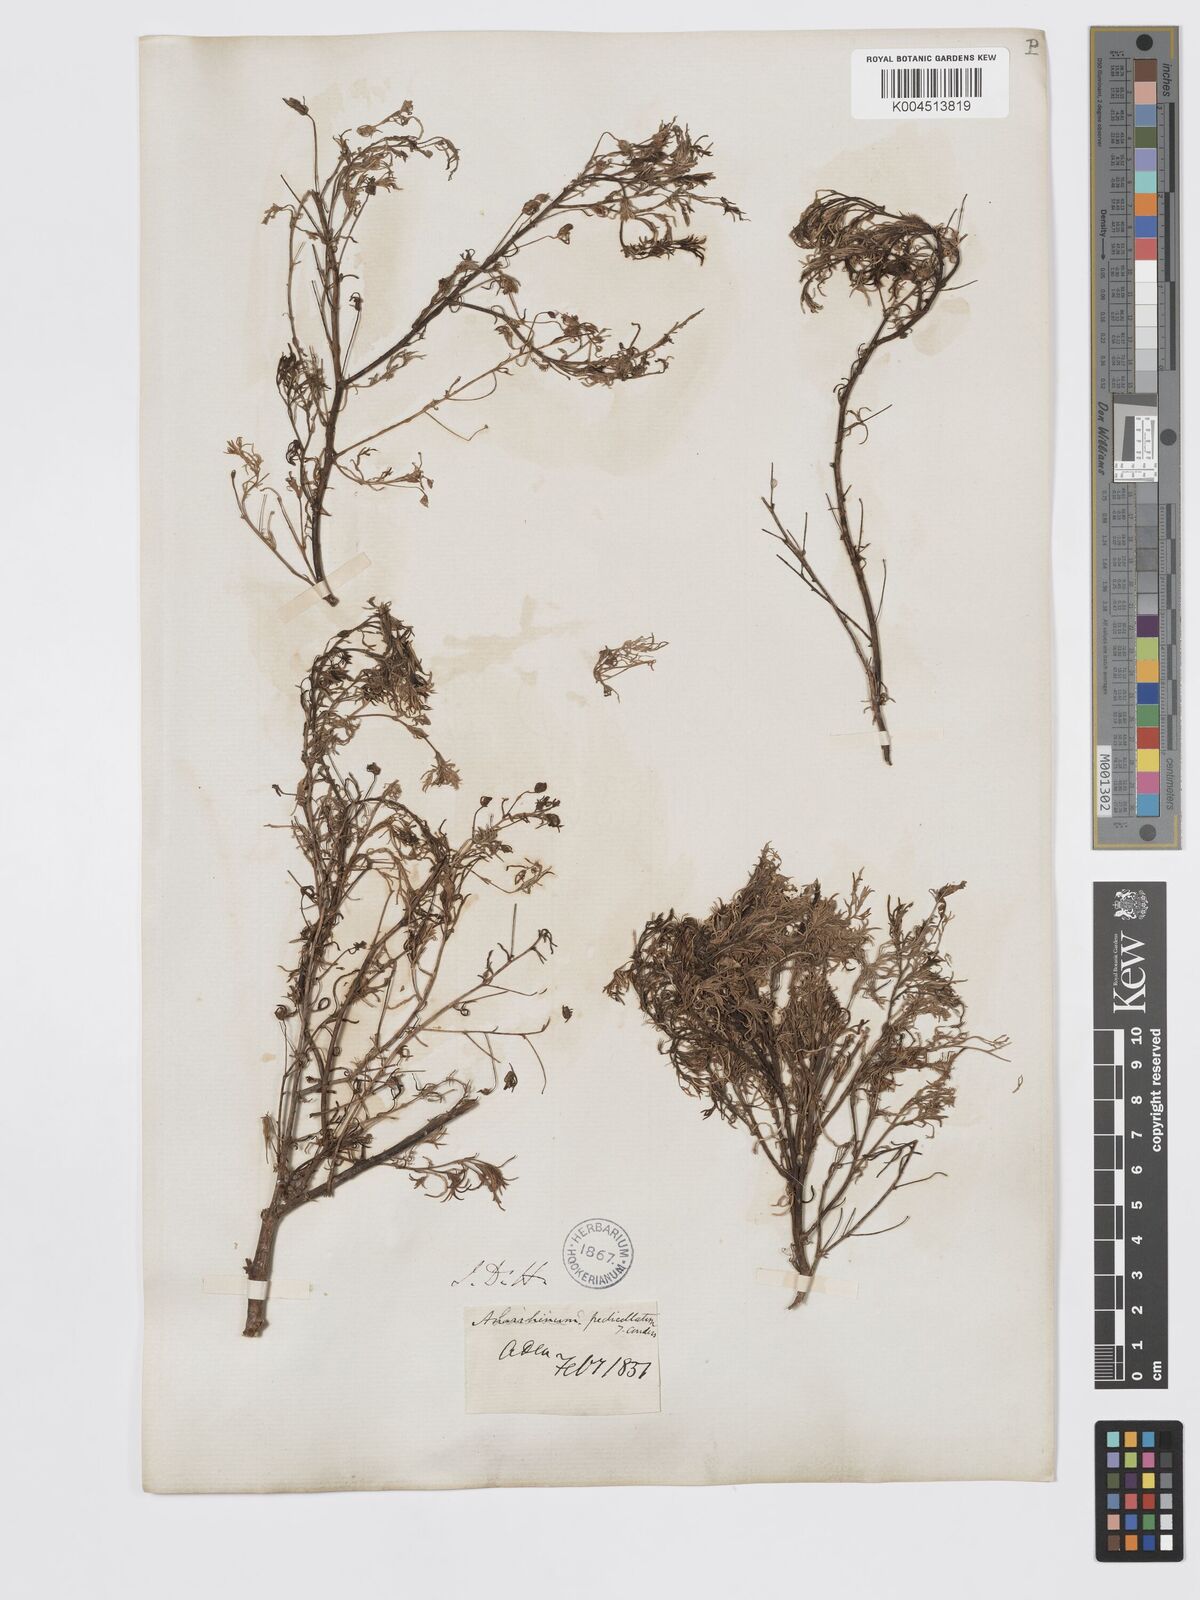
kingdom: Plantae
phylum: Tracheophyta
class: Magnoliopsida
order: Lamiales
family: Plantaginaceae
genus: Schweinfurthia
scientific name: Schweinfurthia pedicellata
